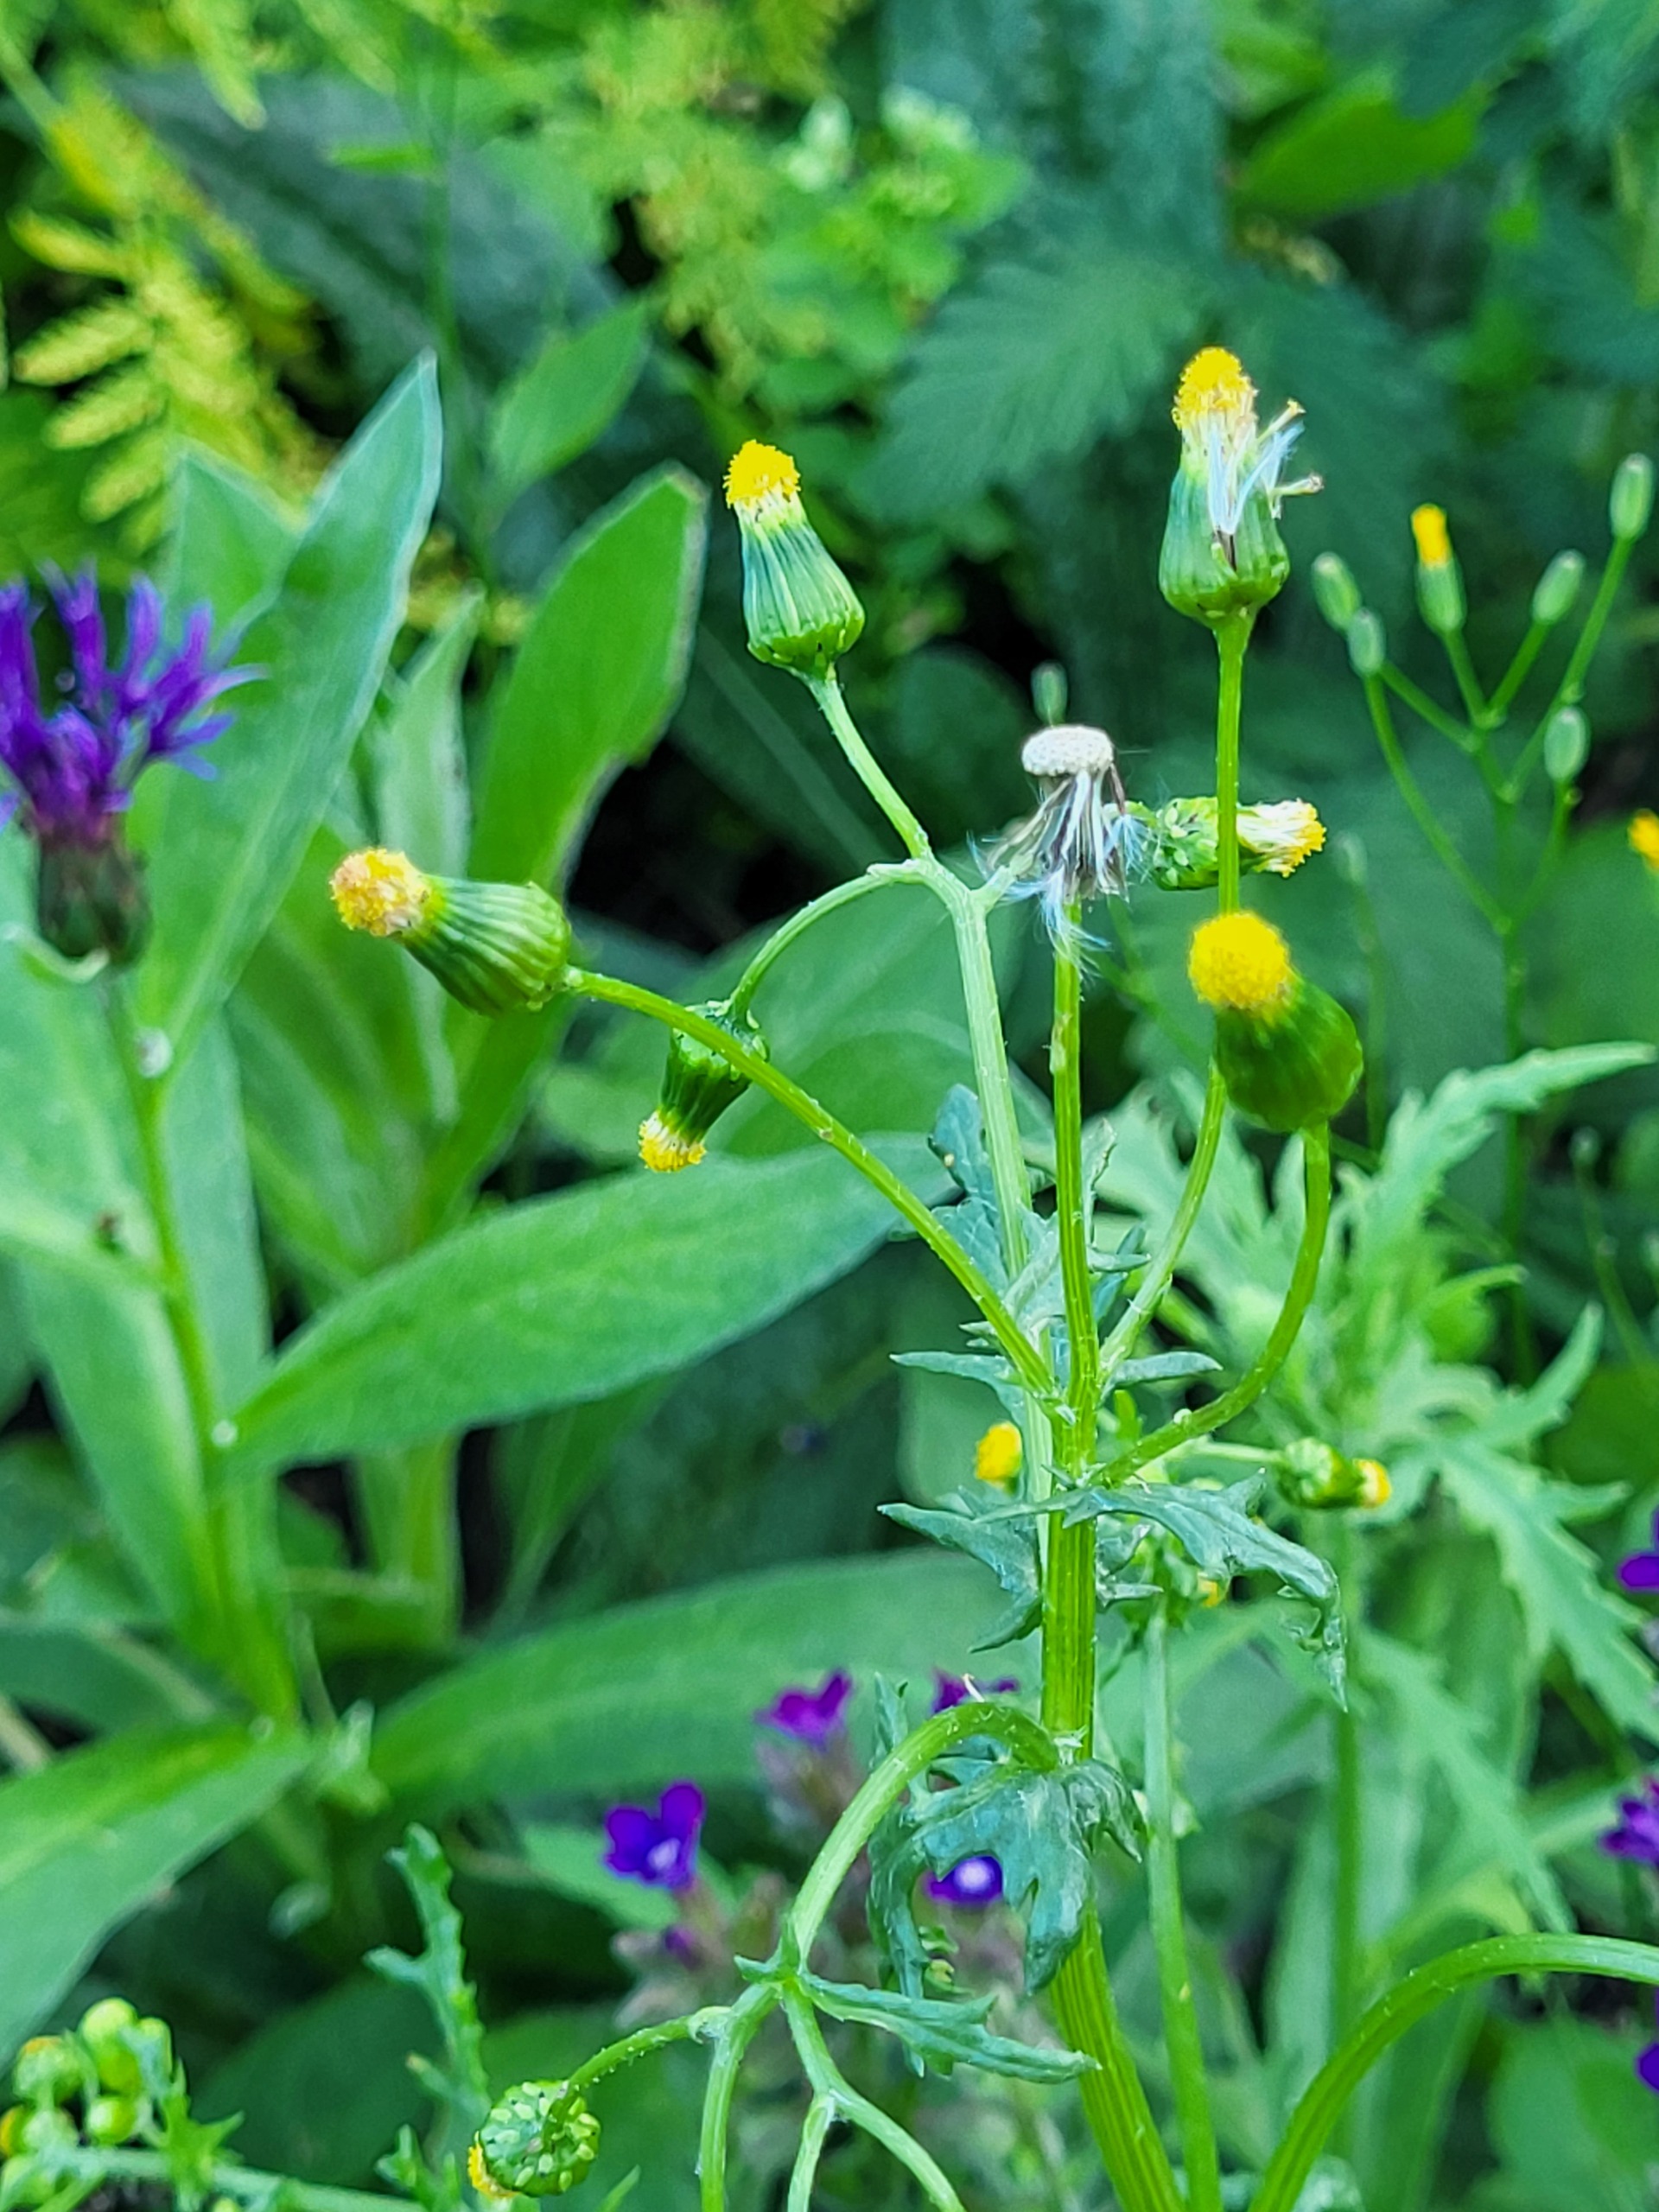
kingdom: Plantae
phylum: Tracheophyta
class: Magnoliopsida
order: Asterales
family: Asteraceae
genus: Senecio
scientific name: Senecio vulgaris
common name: Almindelig brandbæger
